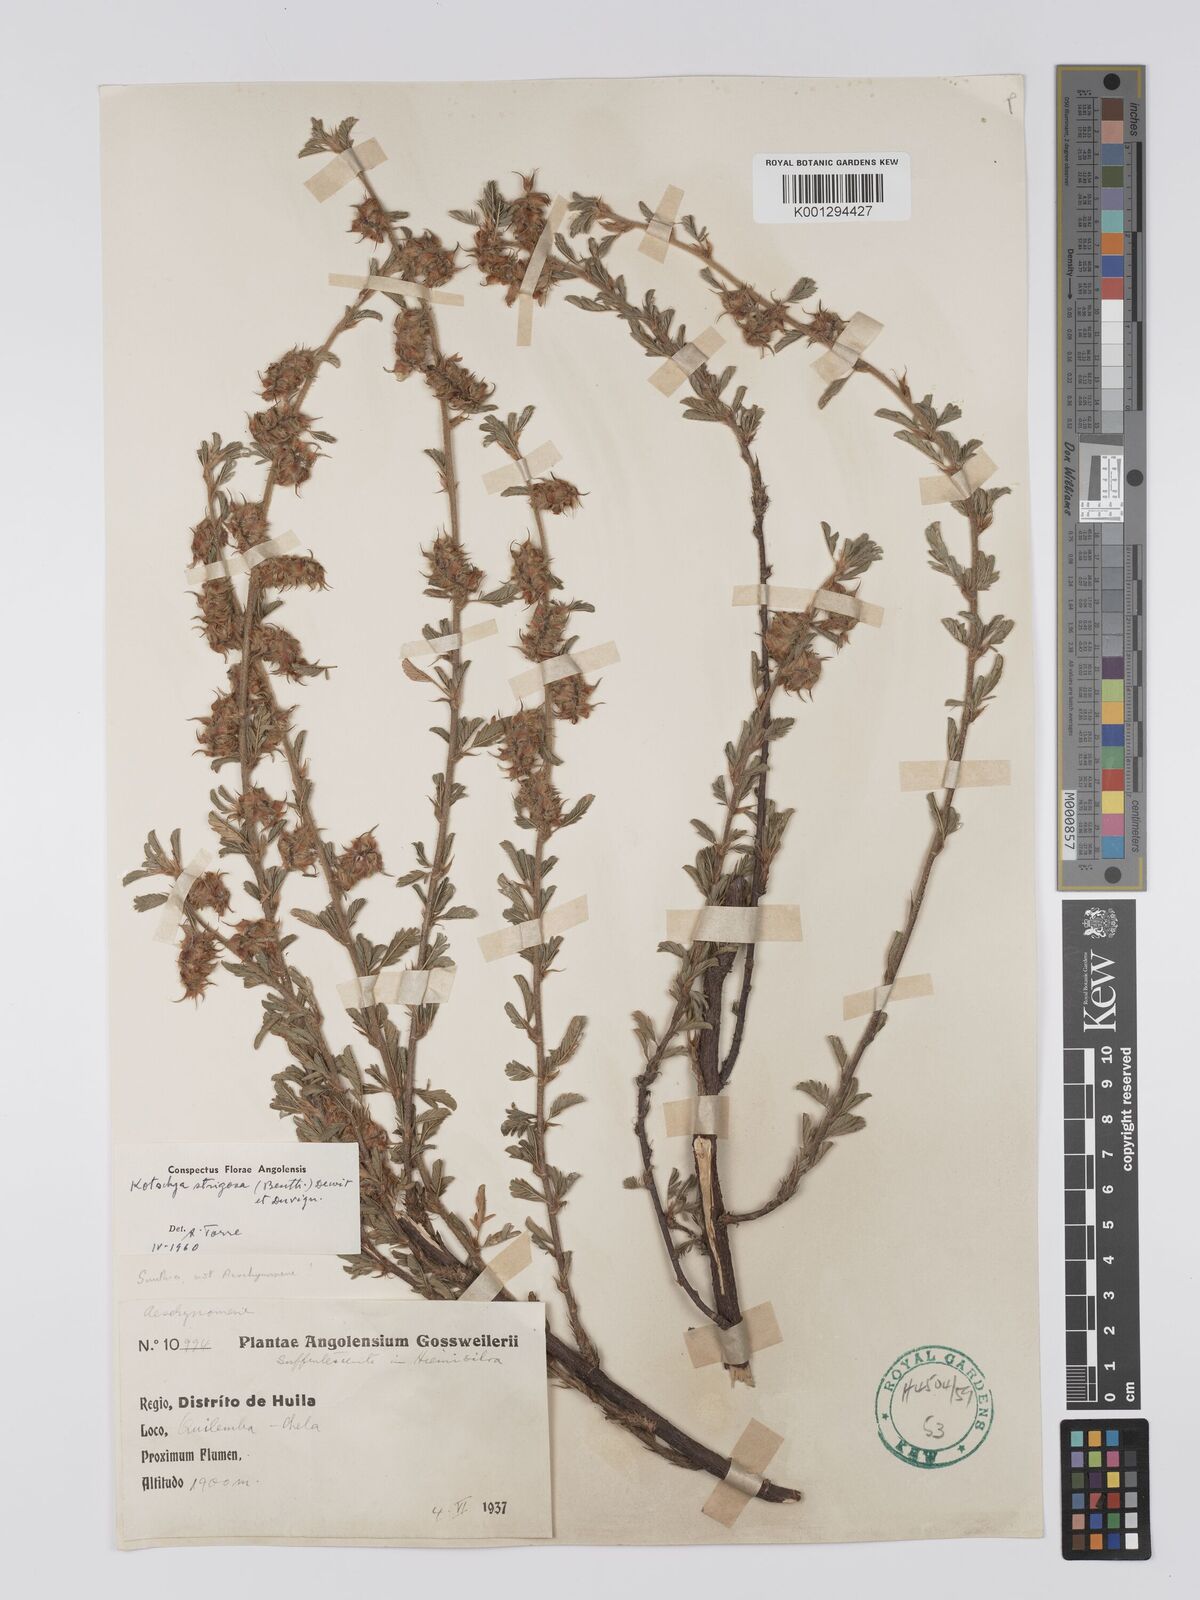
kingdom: Plantae
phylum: Tracheophyta
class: Magnoliopsida
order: Fabales
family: Fabaceae
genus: Kotschya
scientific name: Kotschya strigosa
